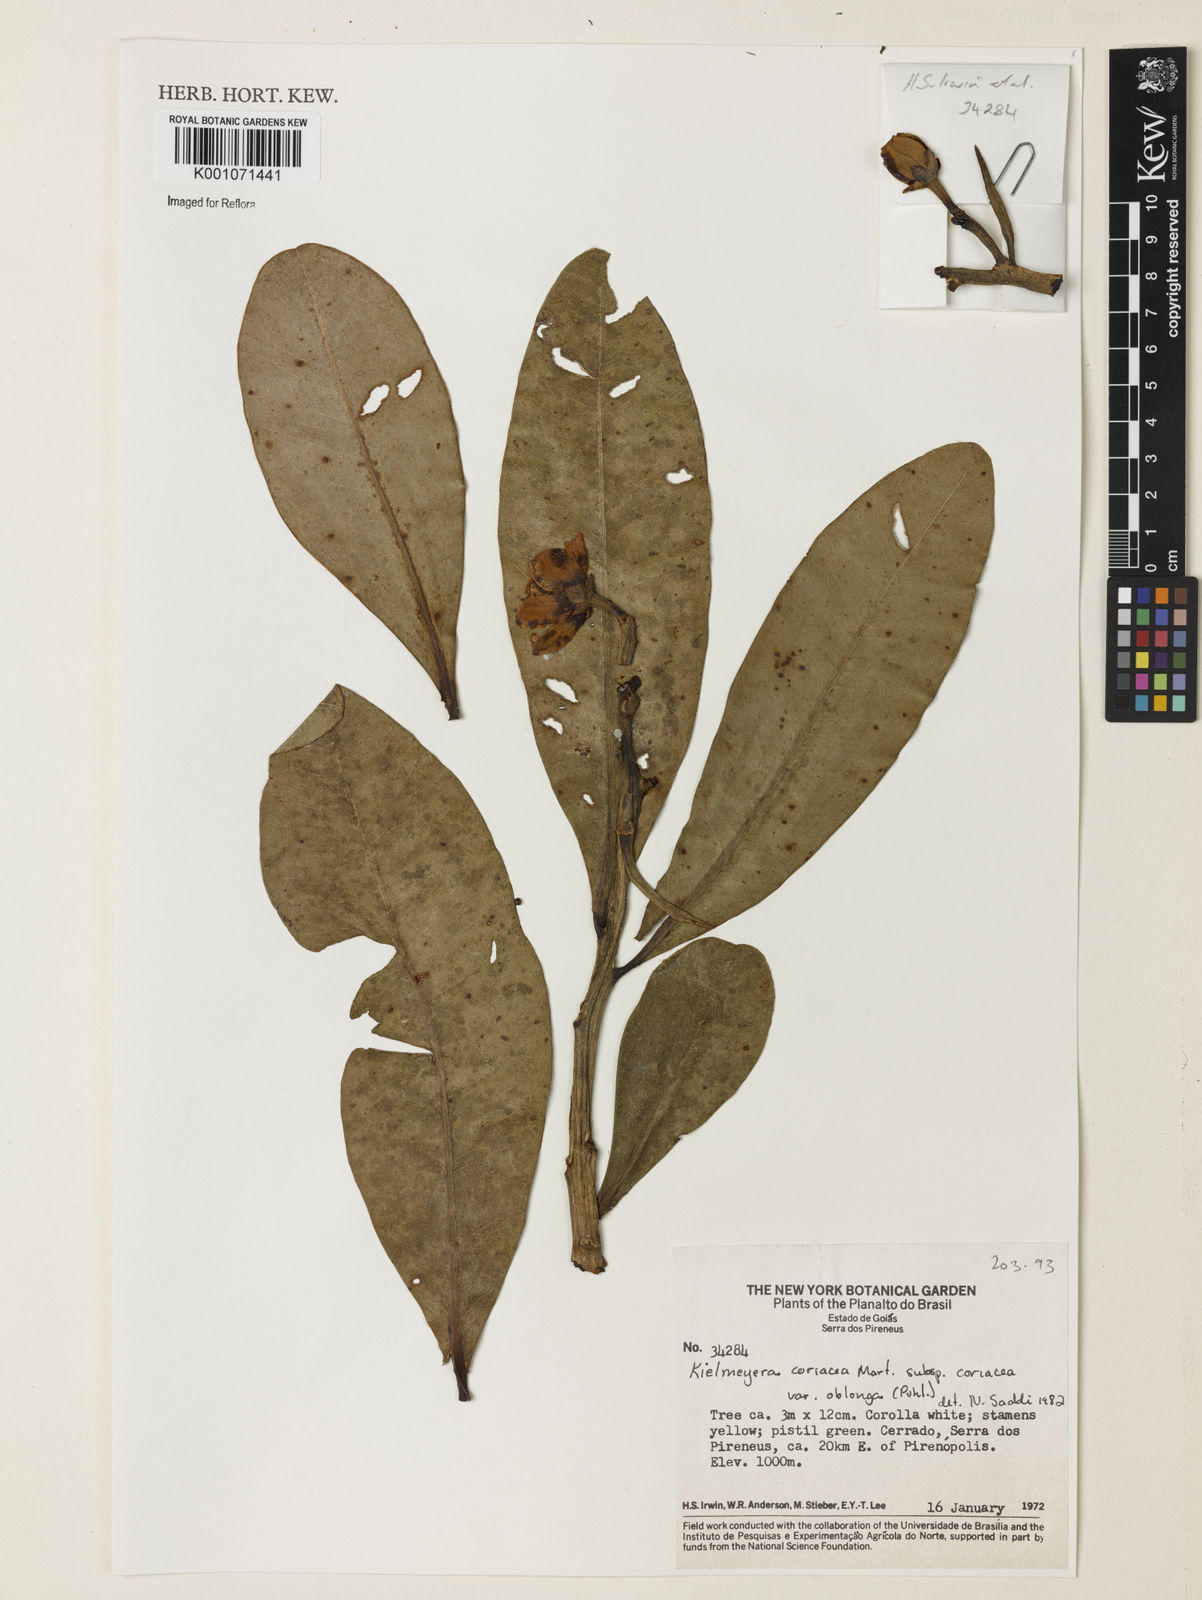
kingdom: Plantae
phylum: Tracheophyta
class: Magnoliopsida
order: Malpighiales
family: Calophyllaceae
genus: Kielmeyera
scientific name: Kielmeyera coriacea
